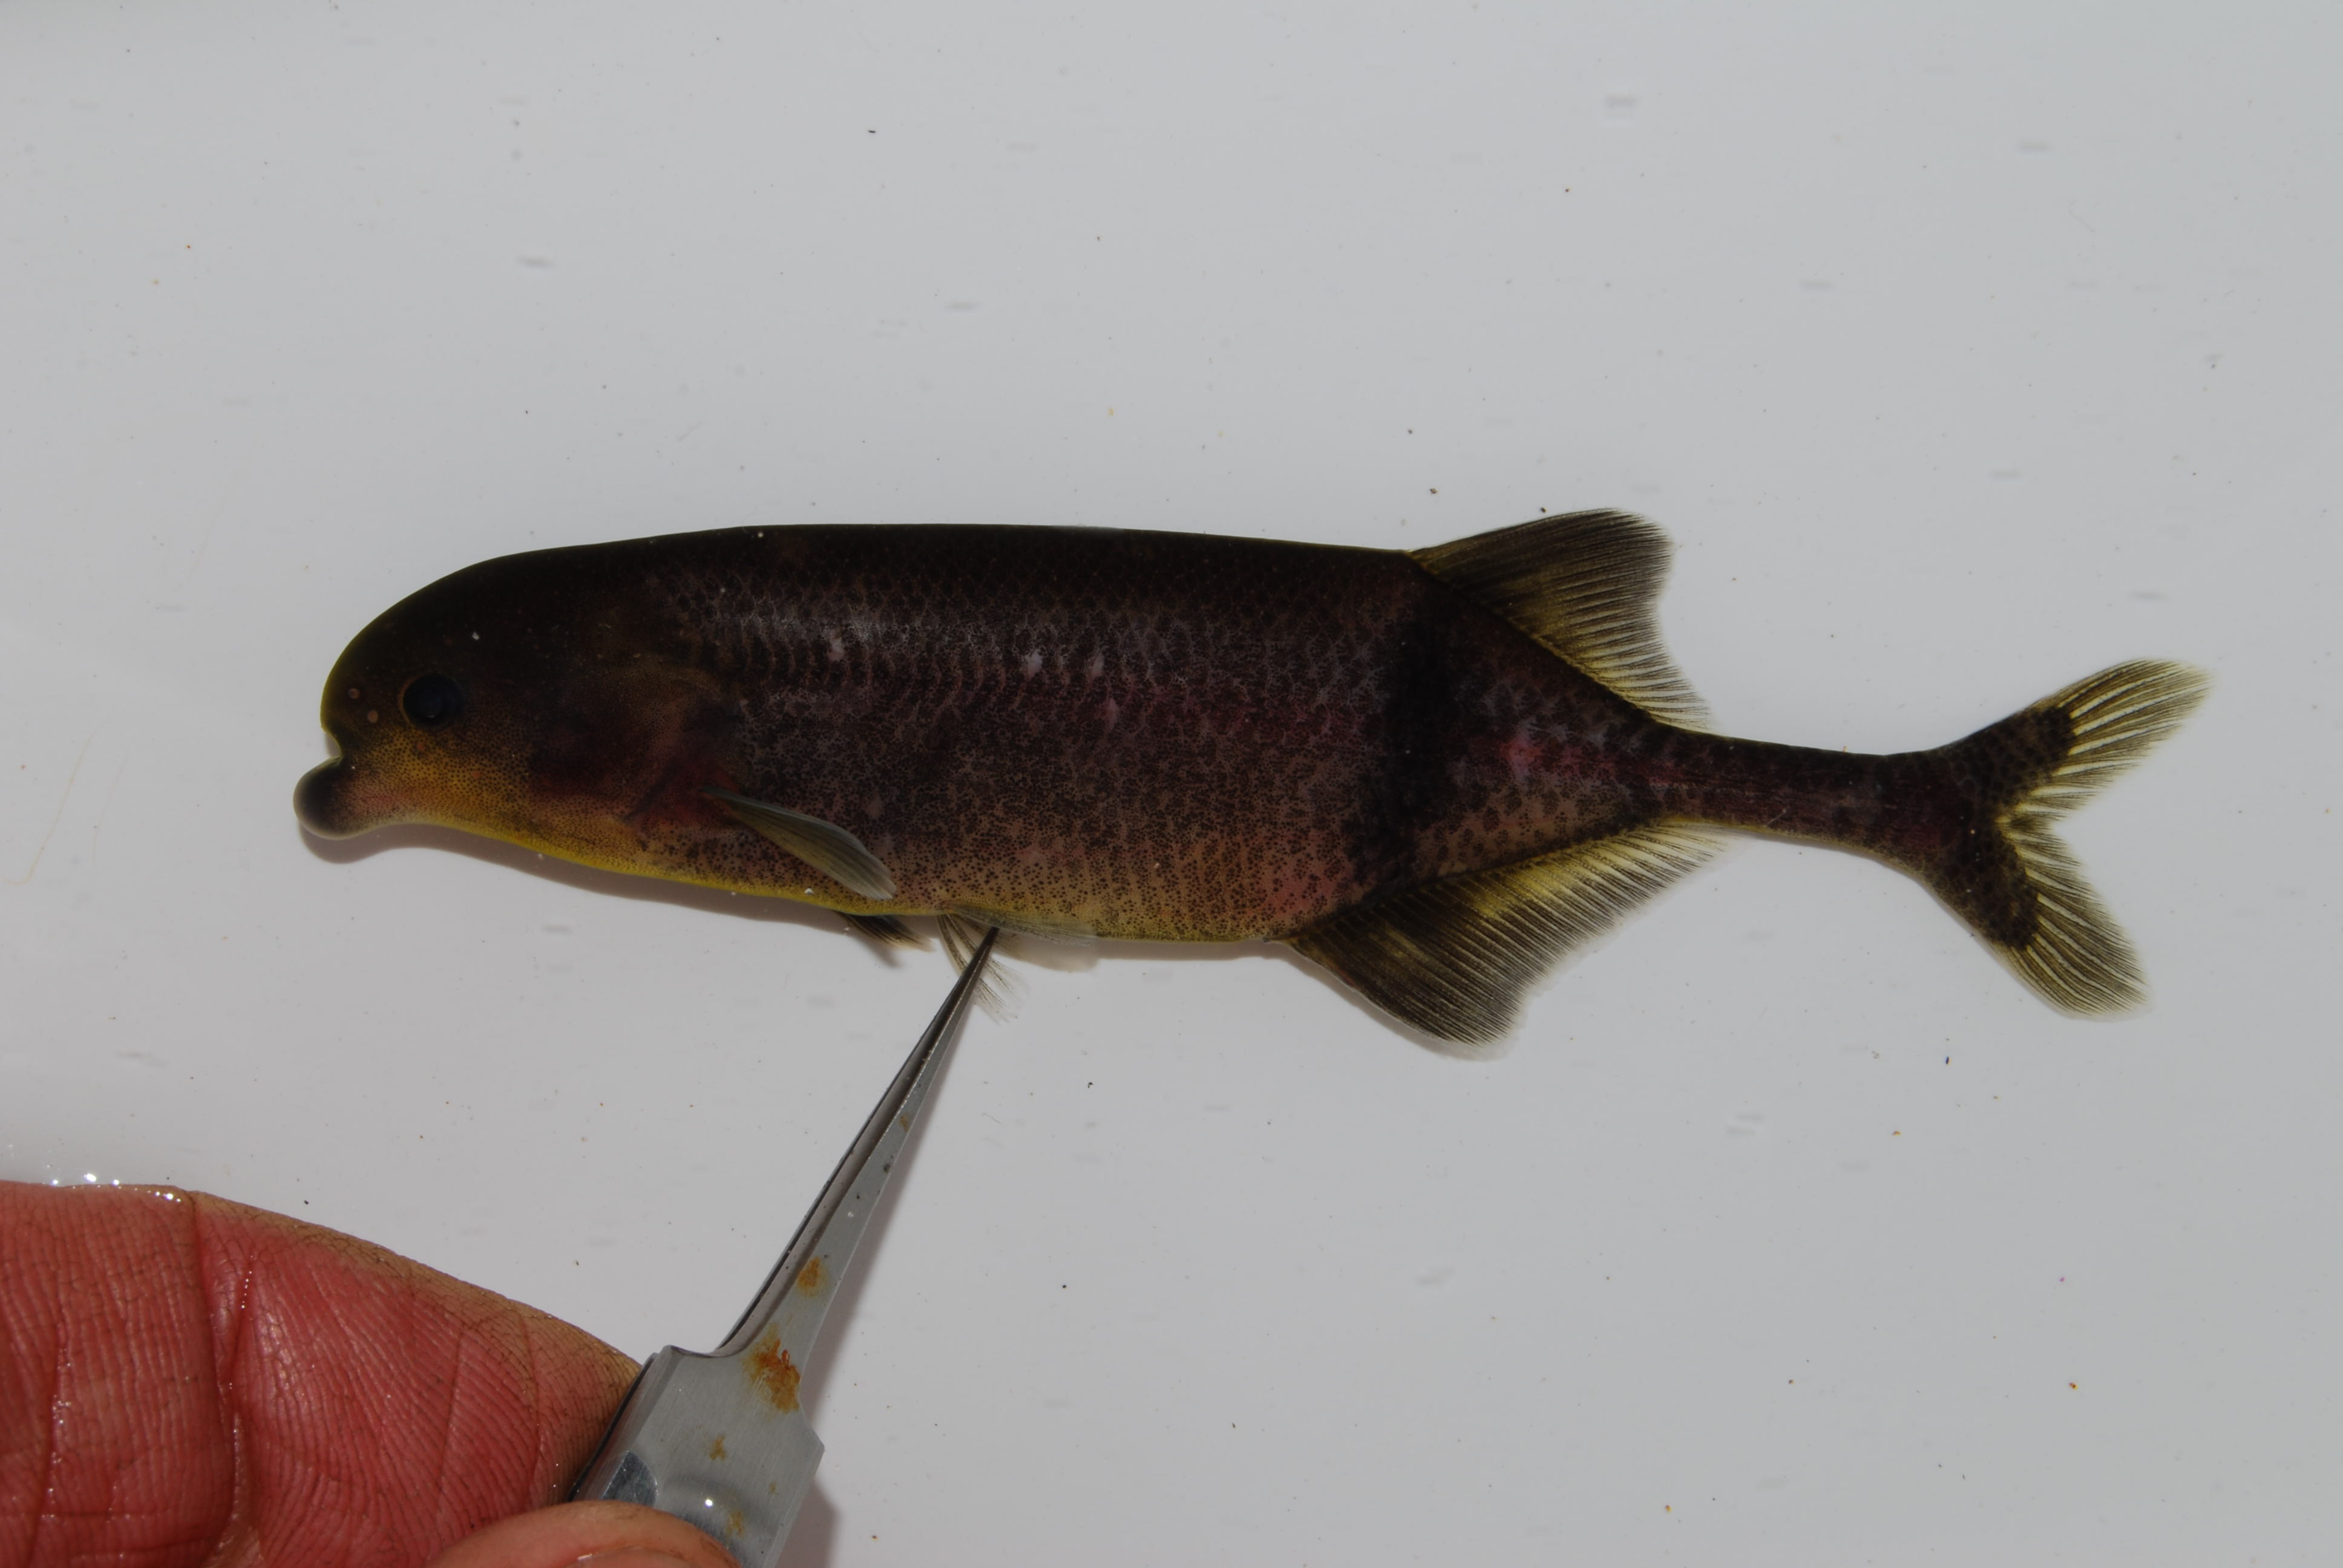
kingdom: Animalia
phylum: Chordata
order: Osteoglossiformes
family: Mormyridae
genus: Marcusenius
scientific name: Marcusenius
